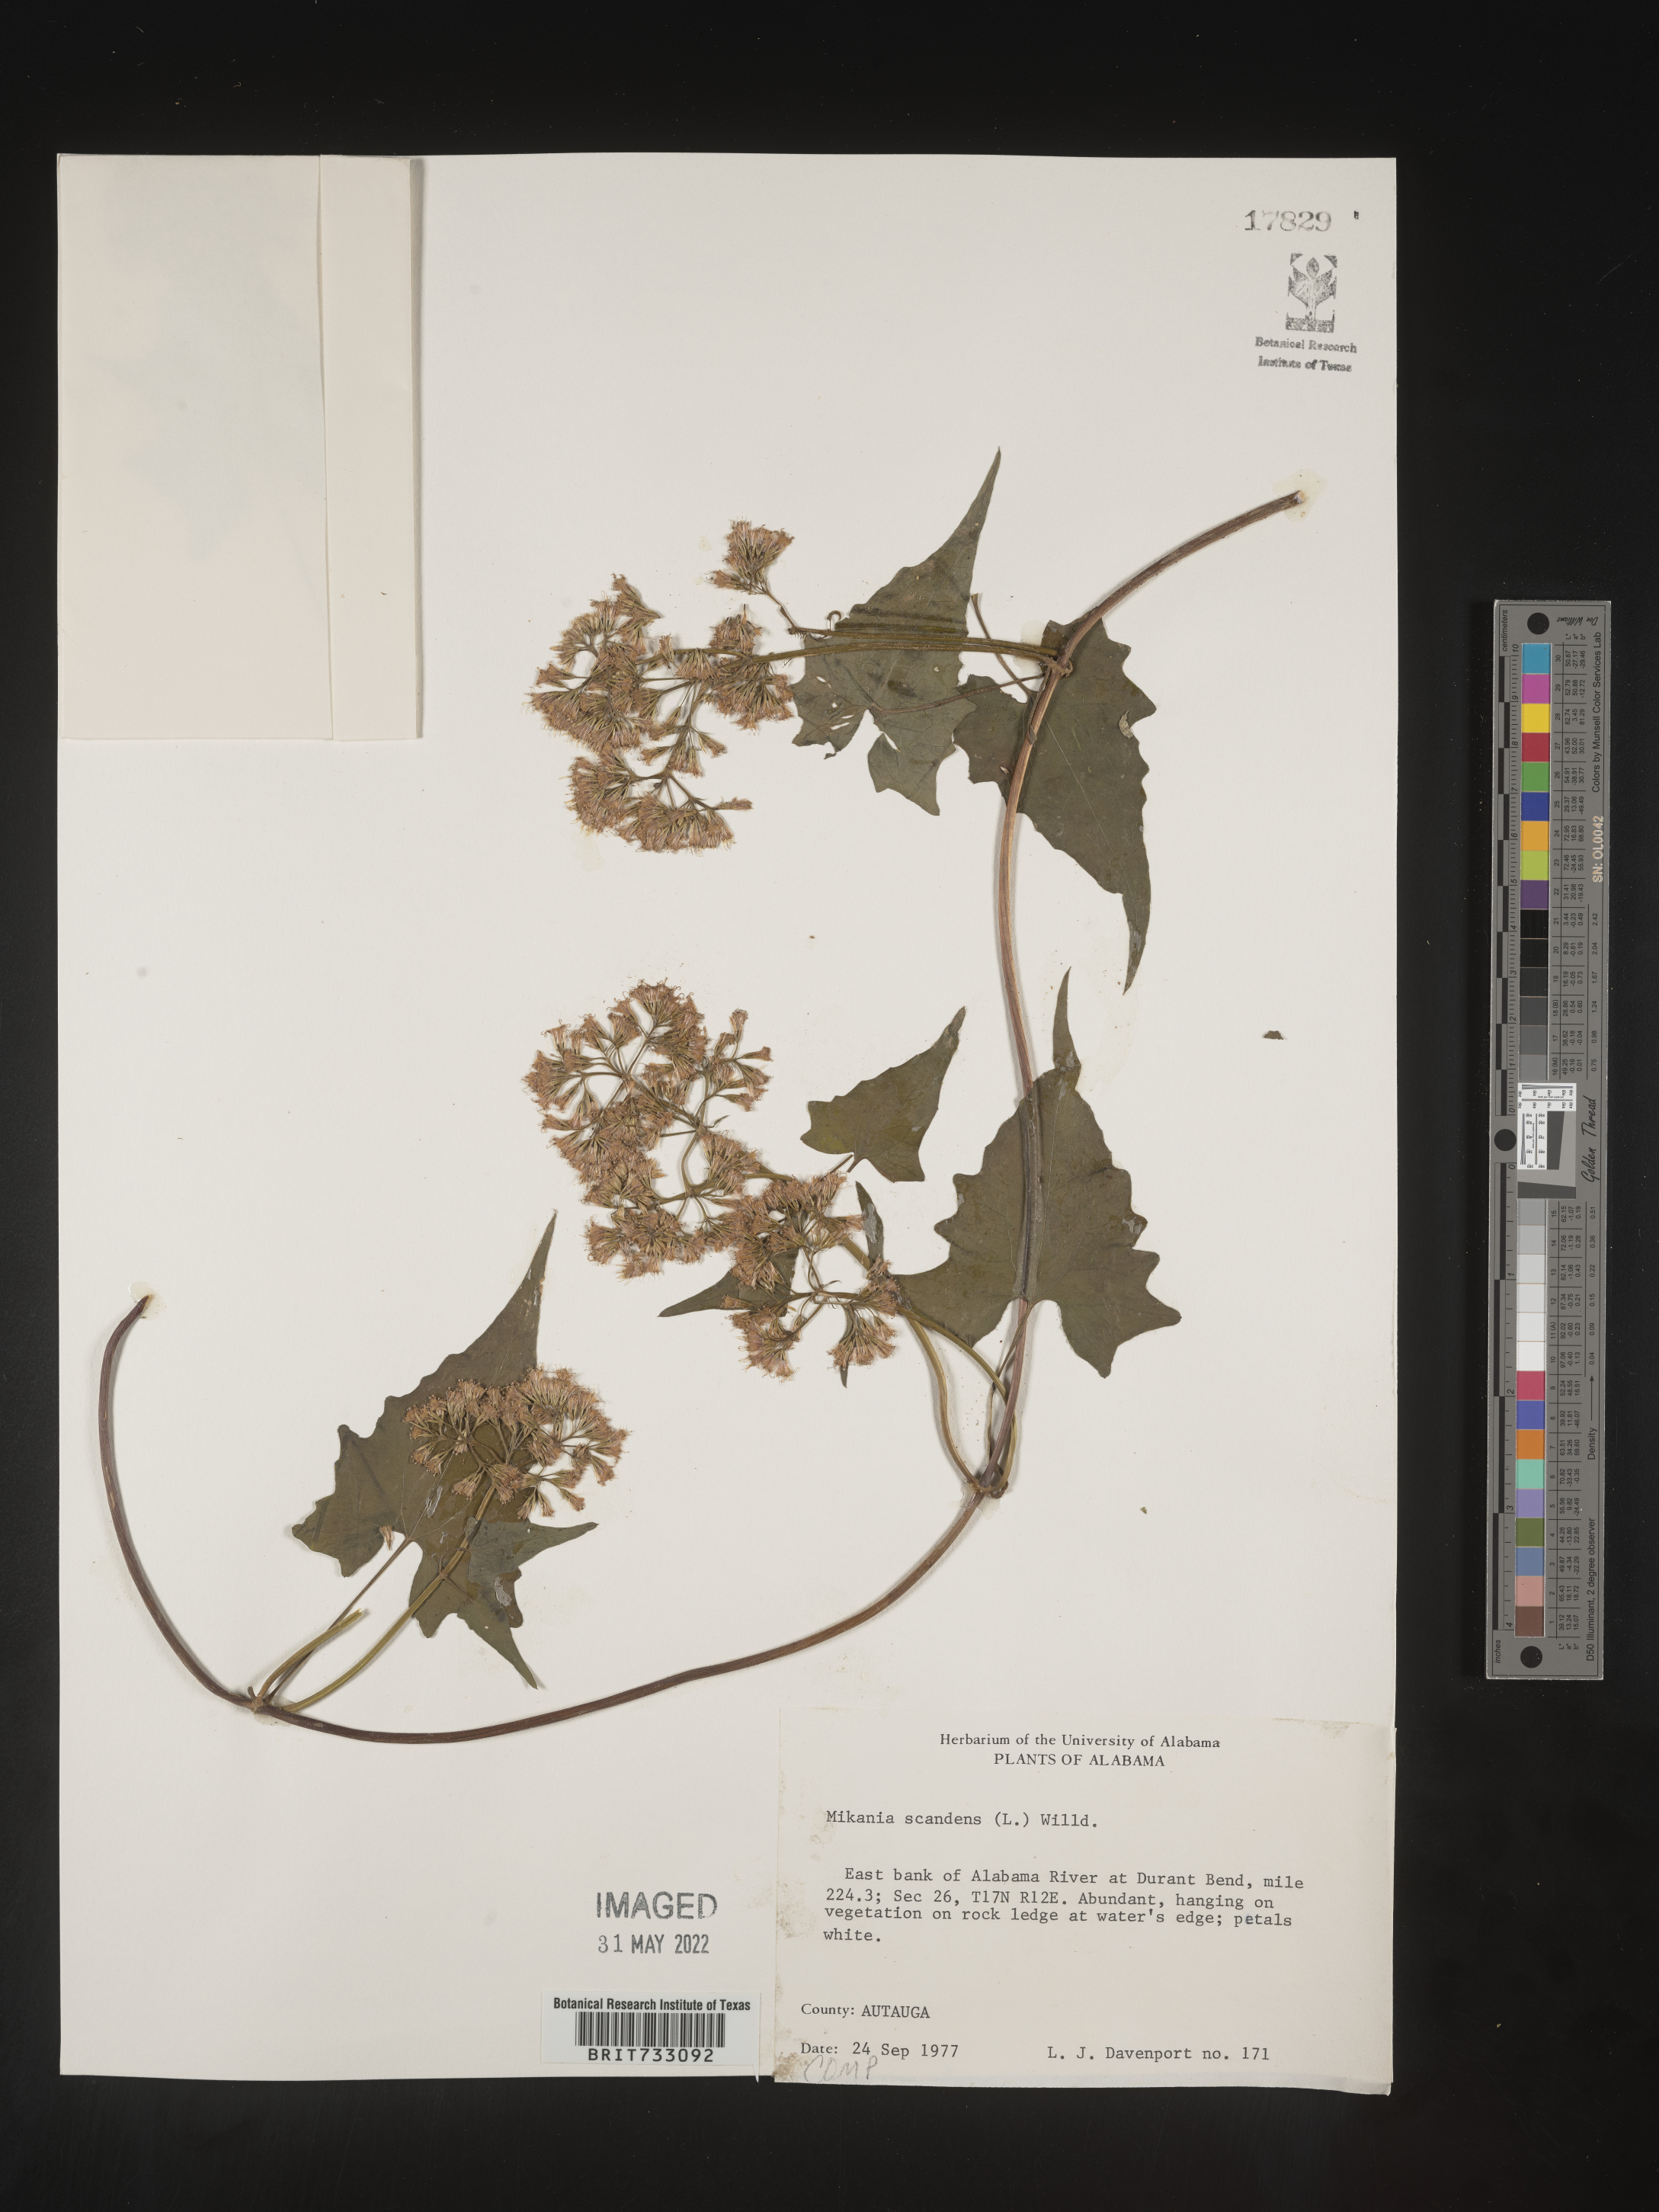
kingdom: Plantae
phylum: Tracheophyta
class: Magnoliopsida
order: Asterales
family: Asteraceae
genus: Mikania
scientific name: Mikania scandens
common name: Climbing hempvine
